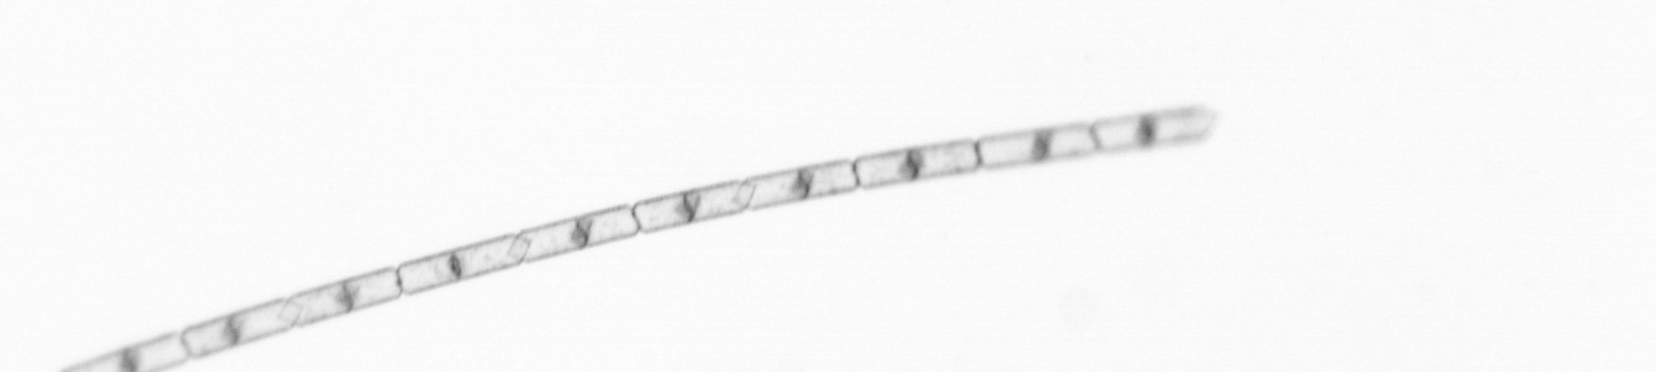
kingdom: Chromista
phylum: Ochrophyta
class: Bacillariophyceae
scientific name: Bacillariophyceae
